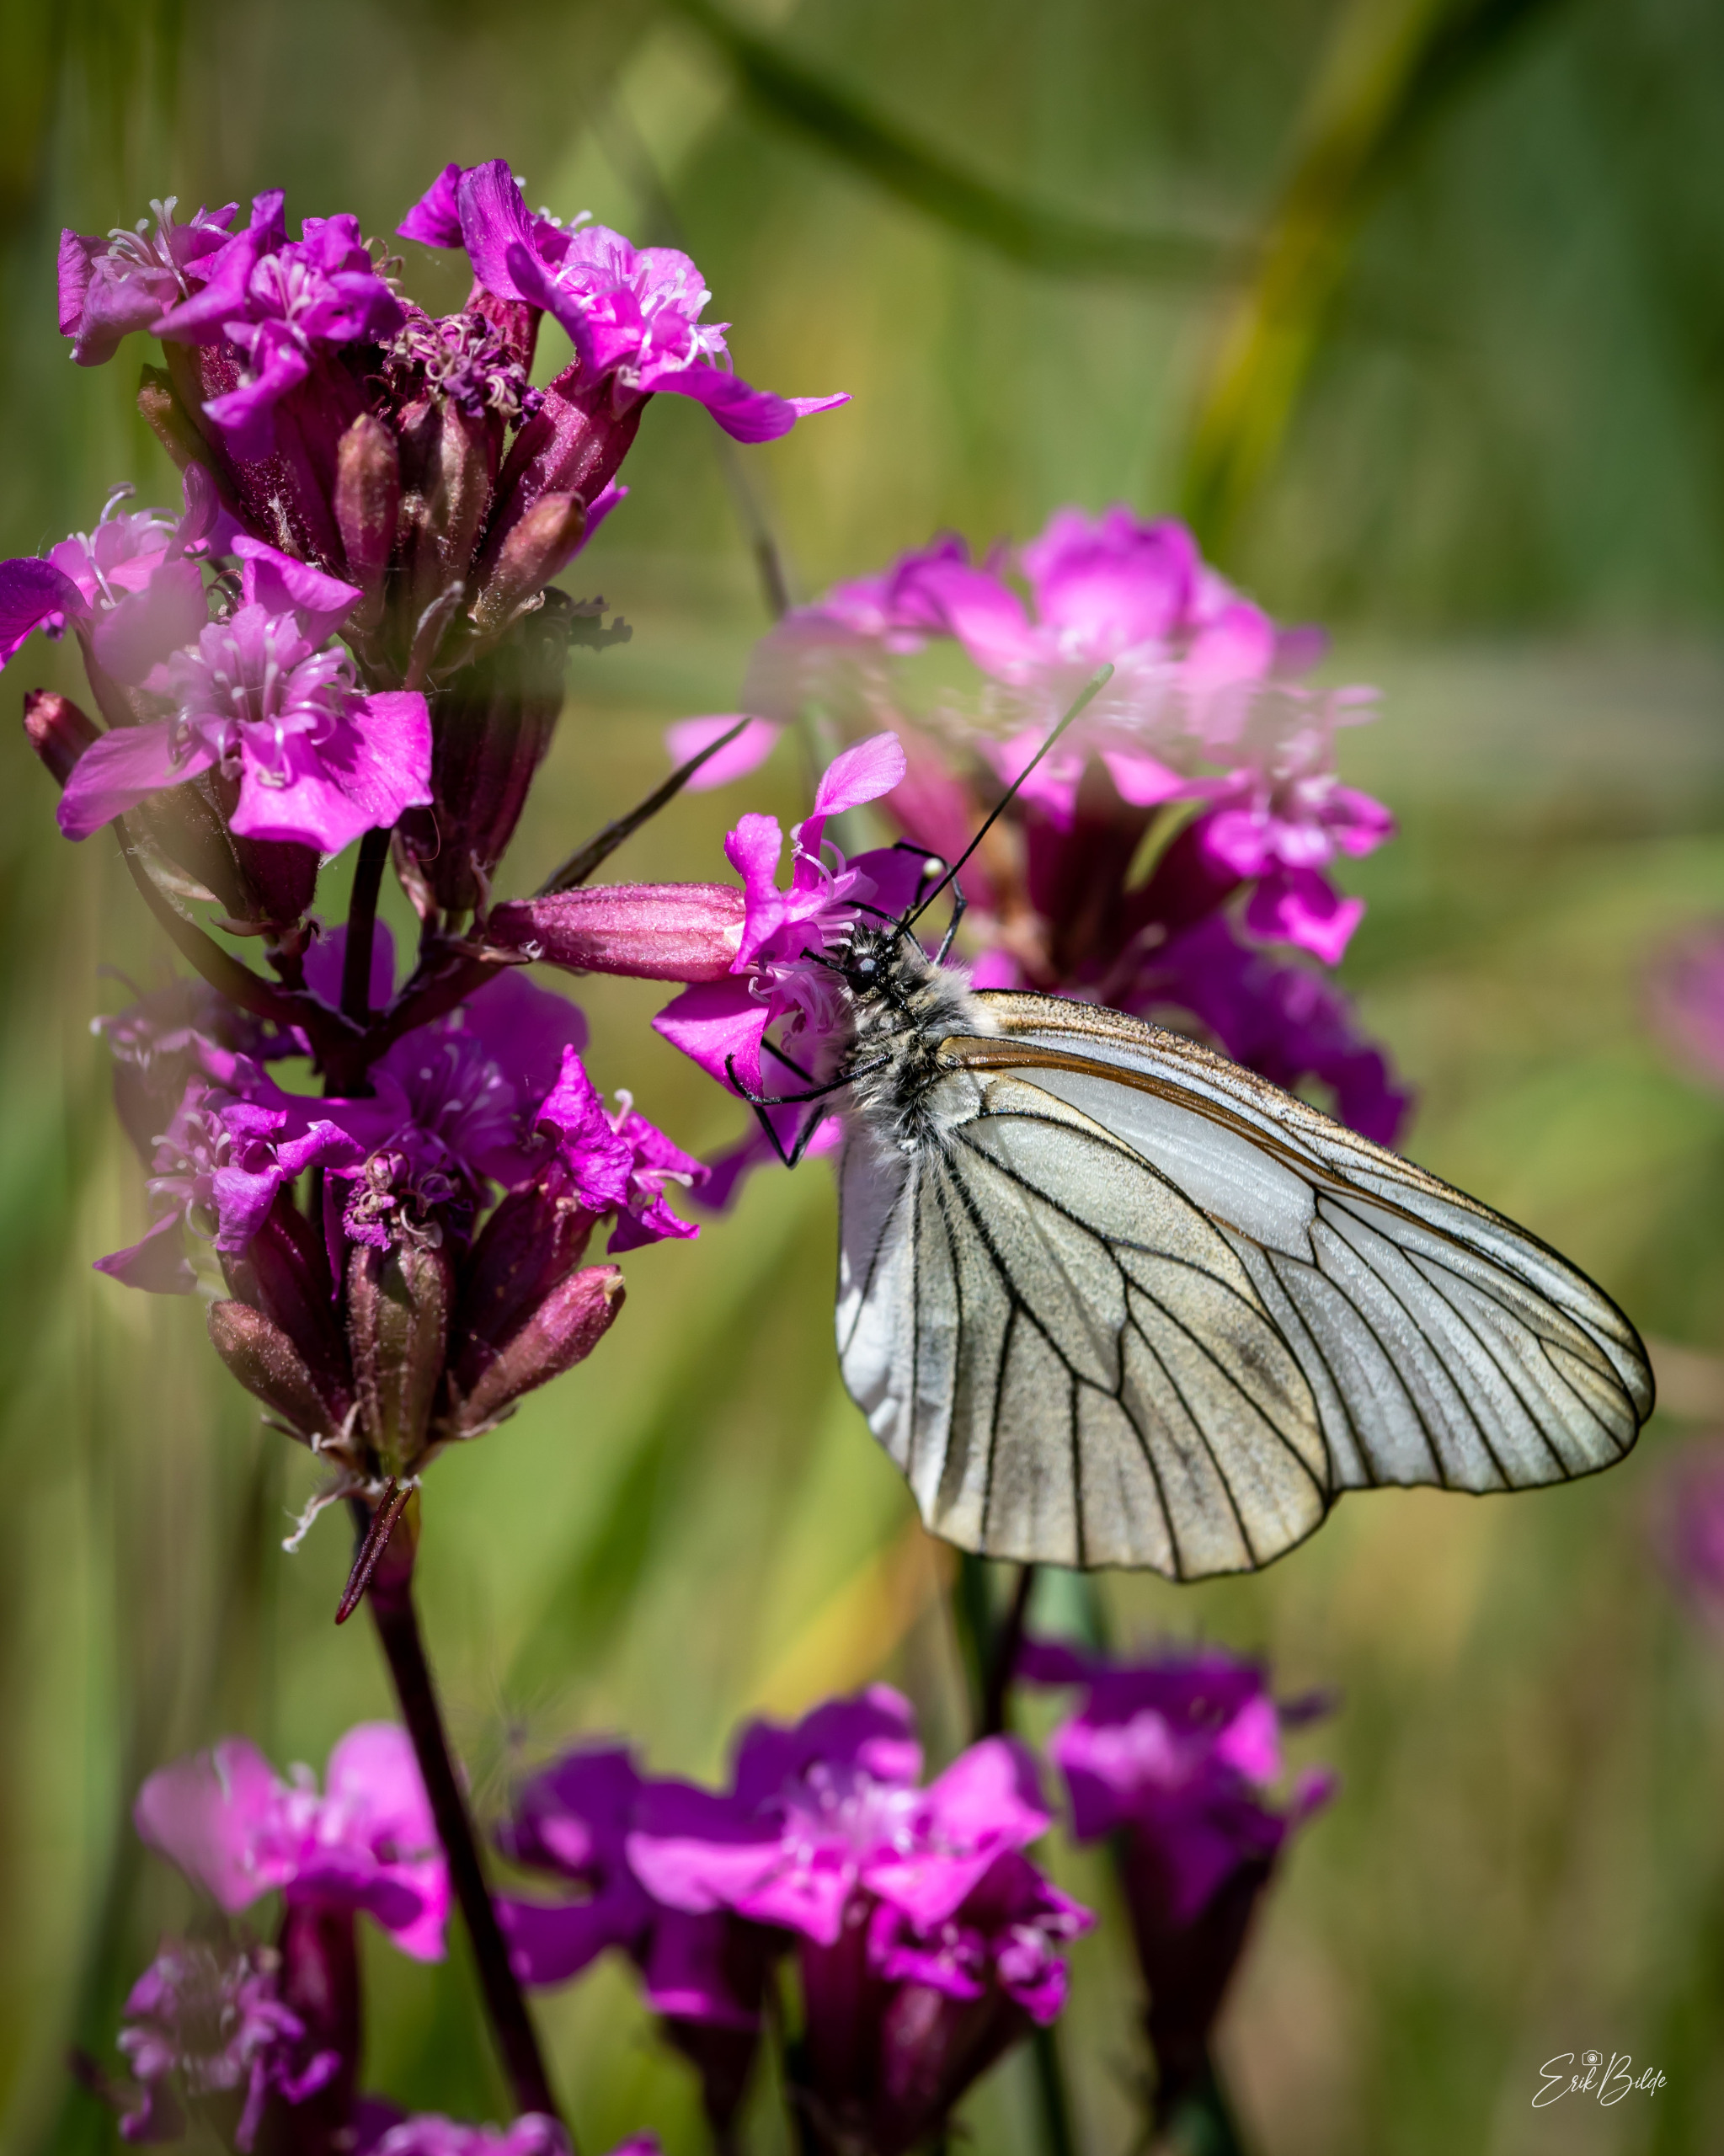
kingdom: Animalia
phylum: Arthropoda
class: Insecta
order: Lepidoptera
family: Pieridae
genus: Aporia
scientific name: Aporia crataegi
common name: Sortåret hvidvinge
